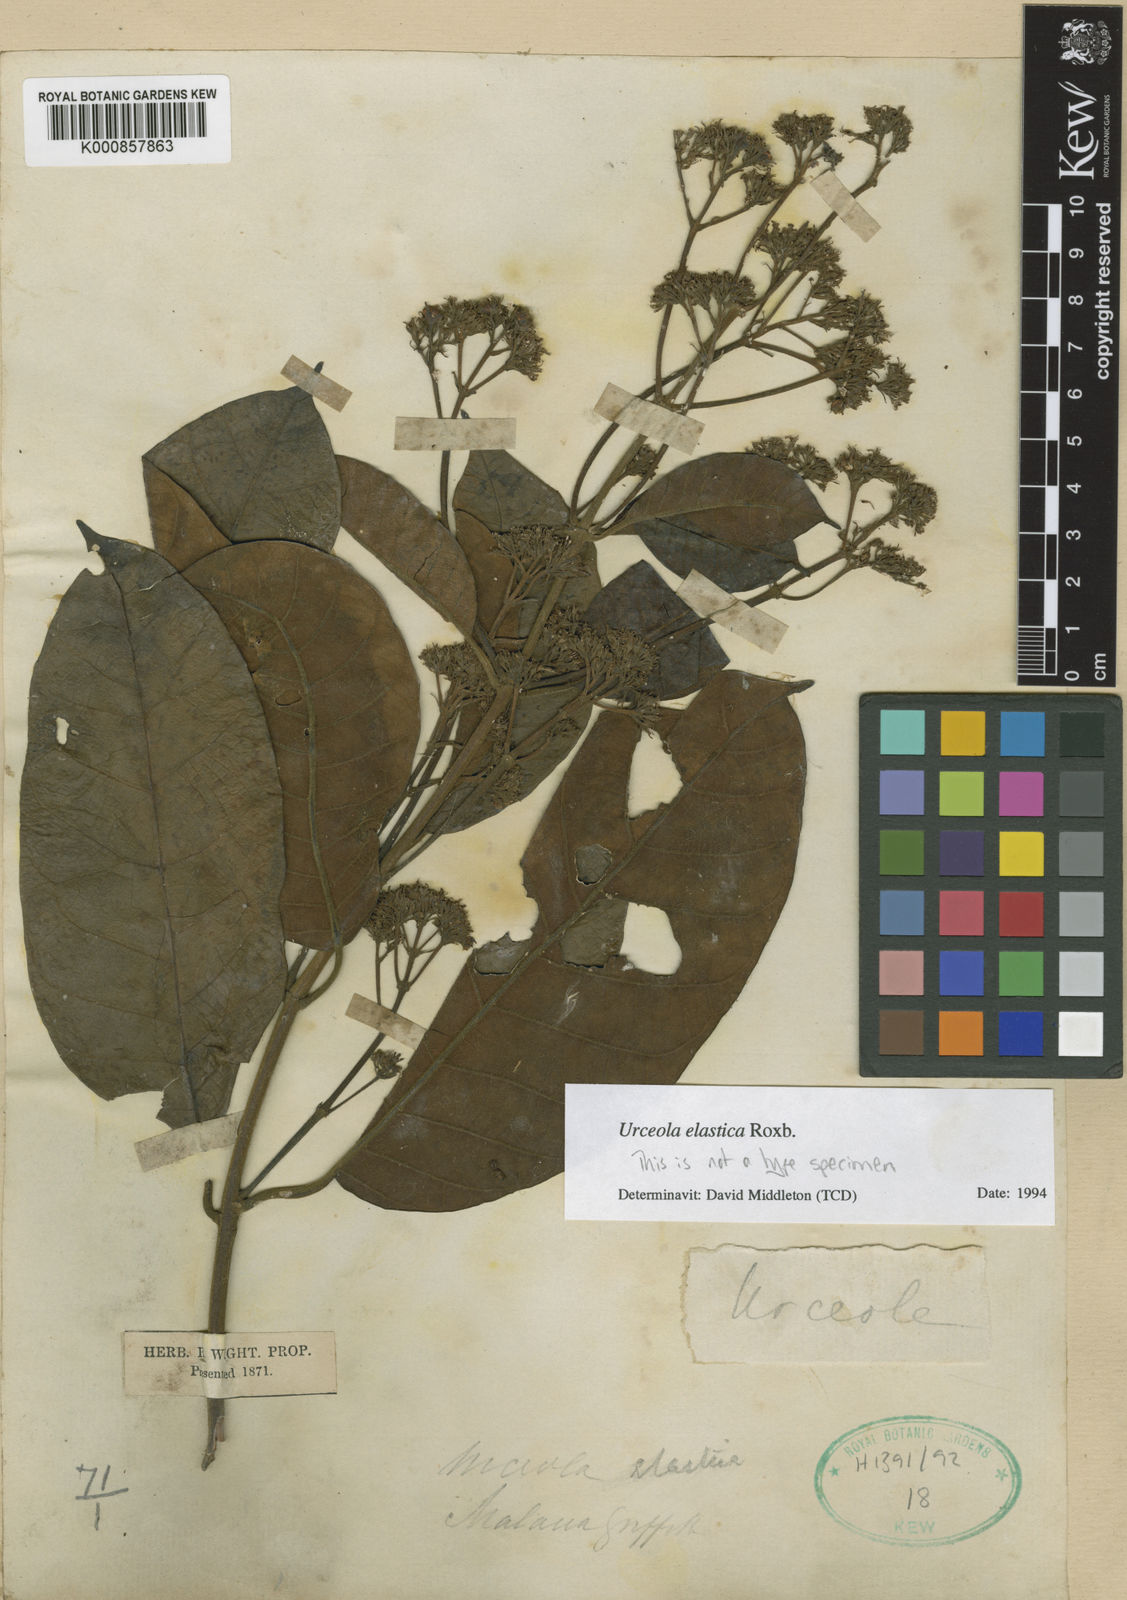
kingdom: Plantae
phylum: Tracheophyta
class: Magnoliopsida
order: Gentianales
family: Apocynaceae
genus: Urceola
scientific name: Urceola elastica
